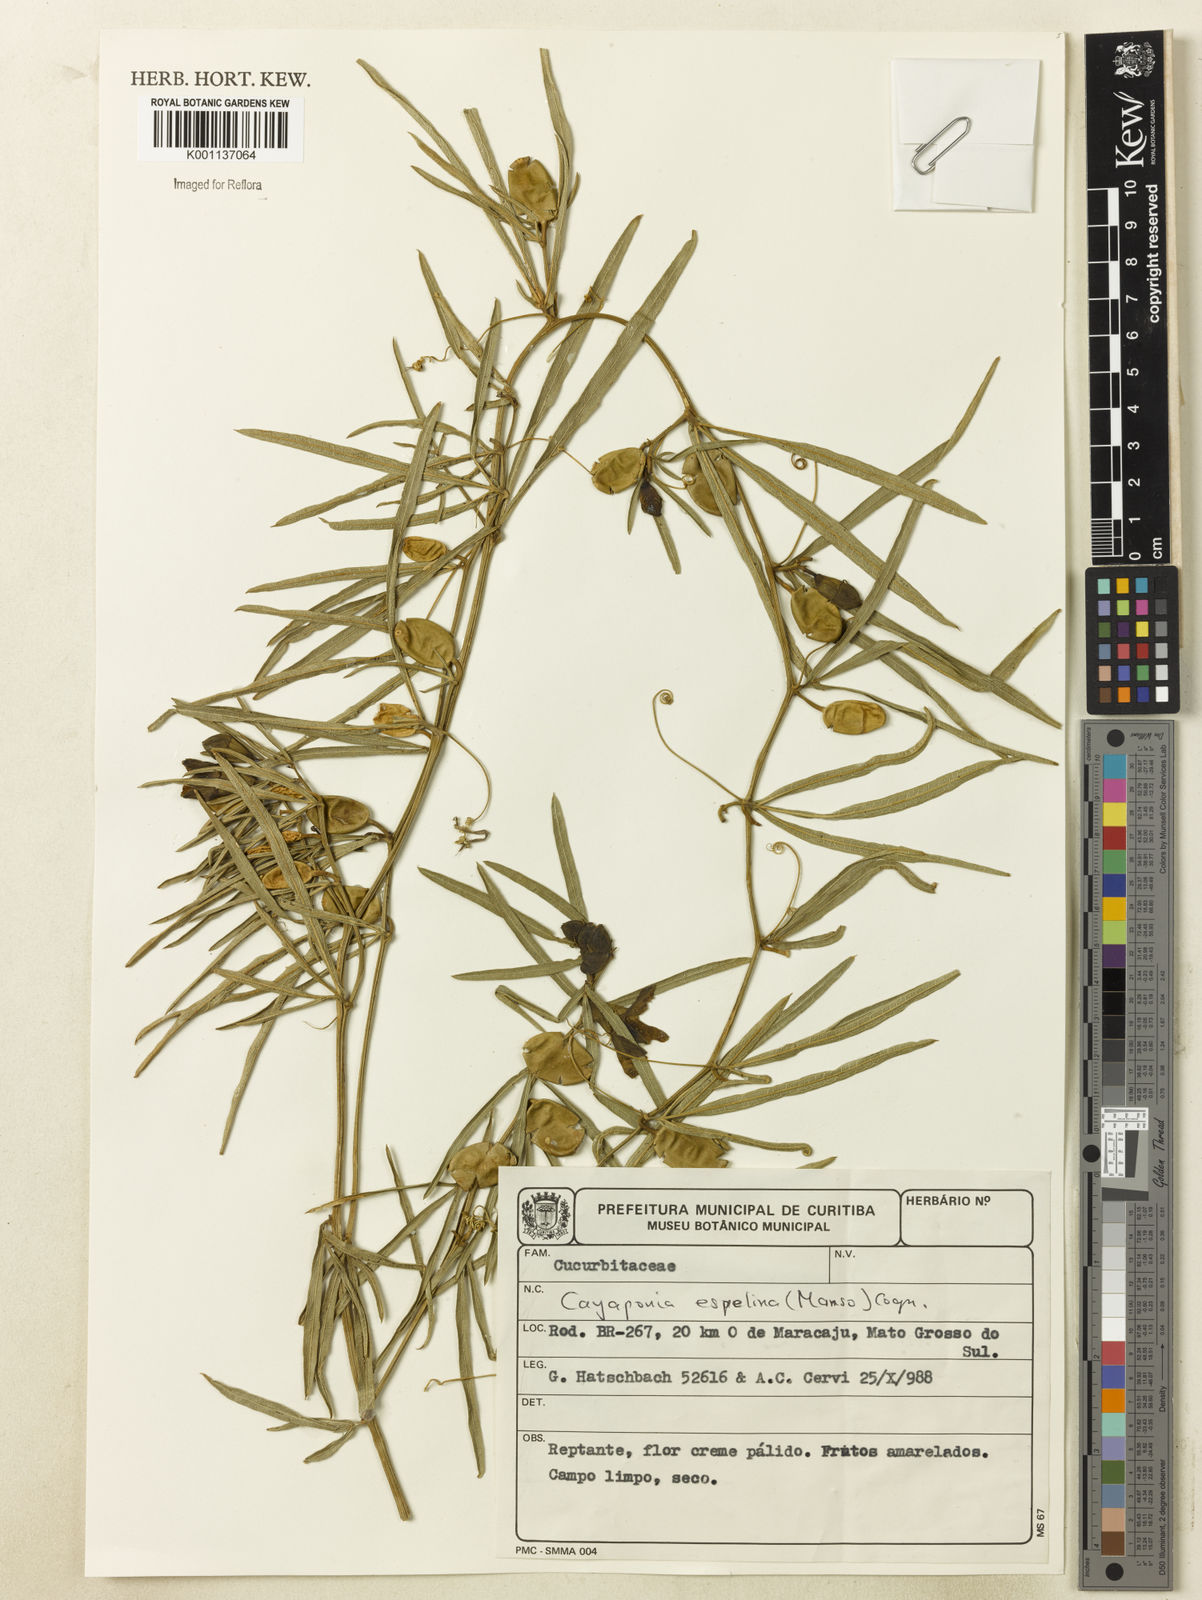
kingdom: Plantae
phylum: Tracheophyta
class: Magnoliopsida
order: Cucurbitales
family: Cucurbitaceae
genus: Cayaponia
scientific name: Cayaponia espelina
